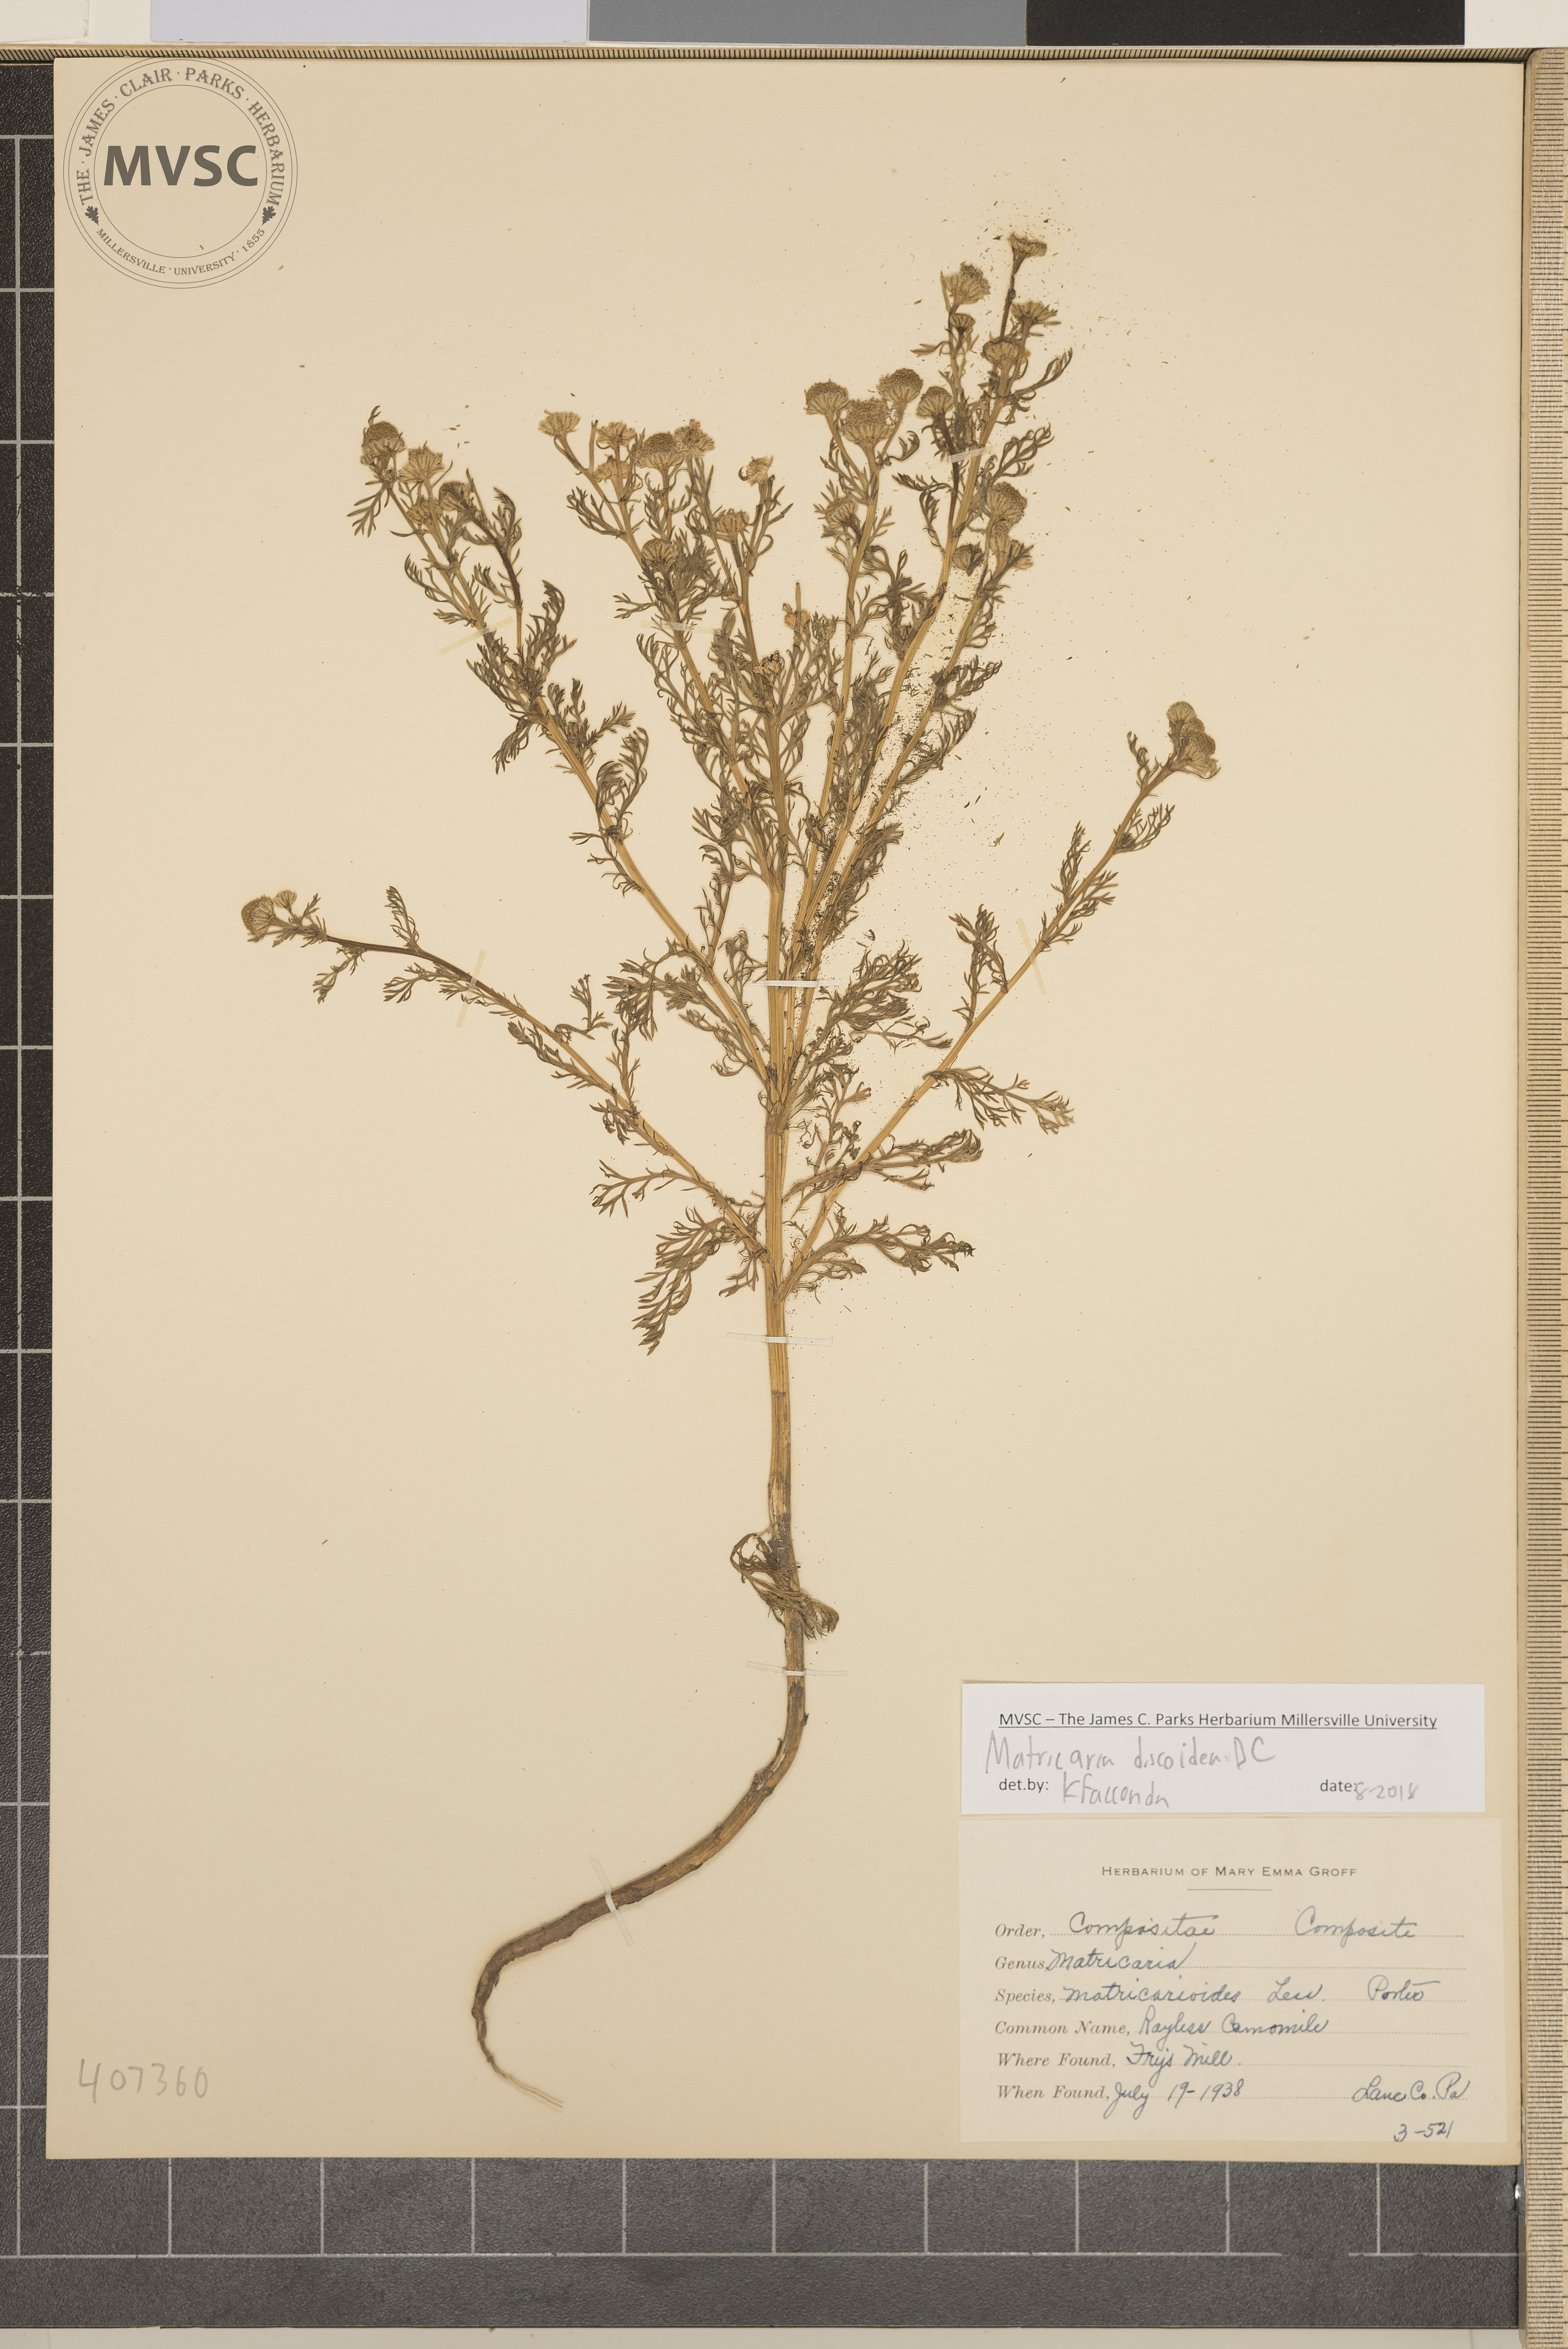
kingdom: Plantae
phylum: Tracheophyta
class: Magnoliopsida
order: Asterales
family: Asteraceae
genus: Matricaria
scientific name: Matricaria discoidea
